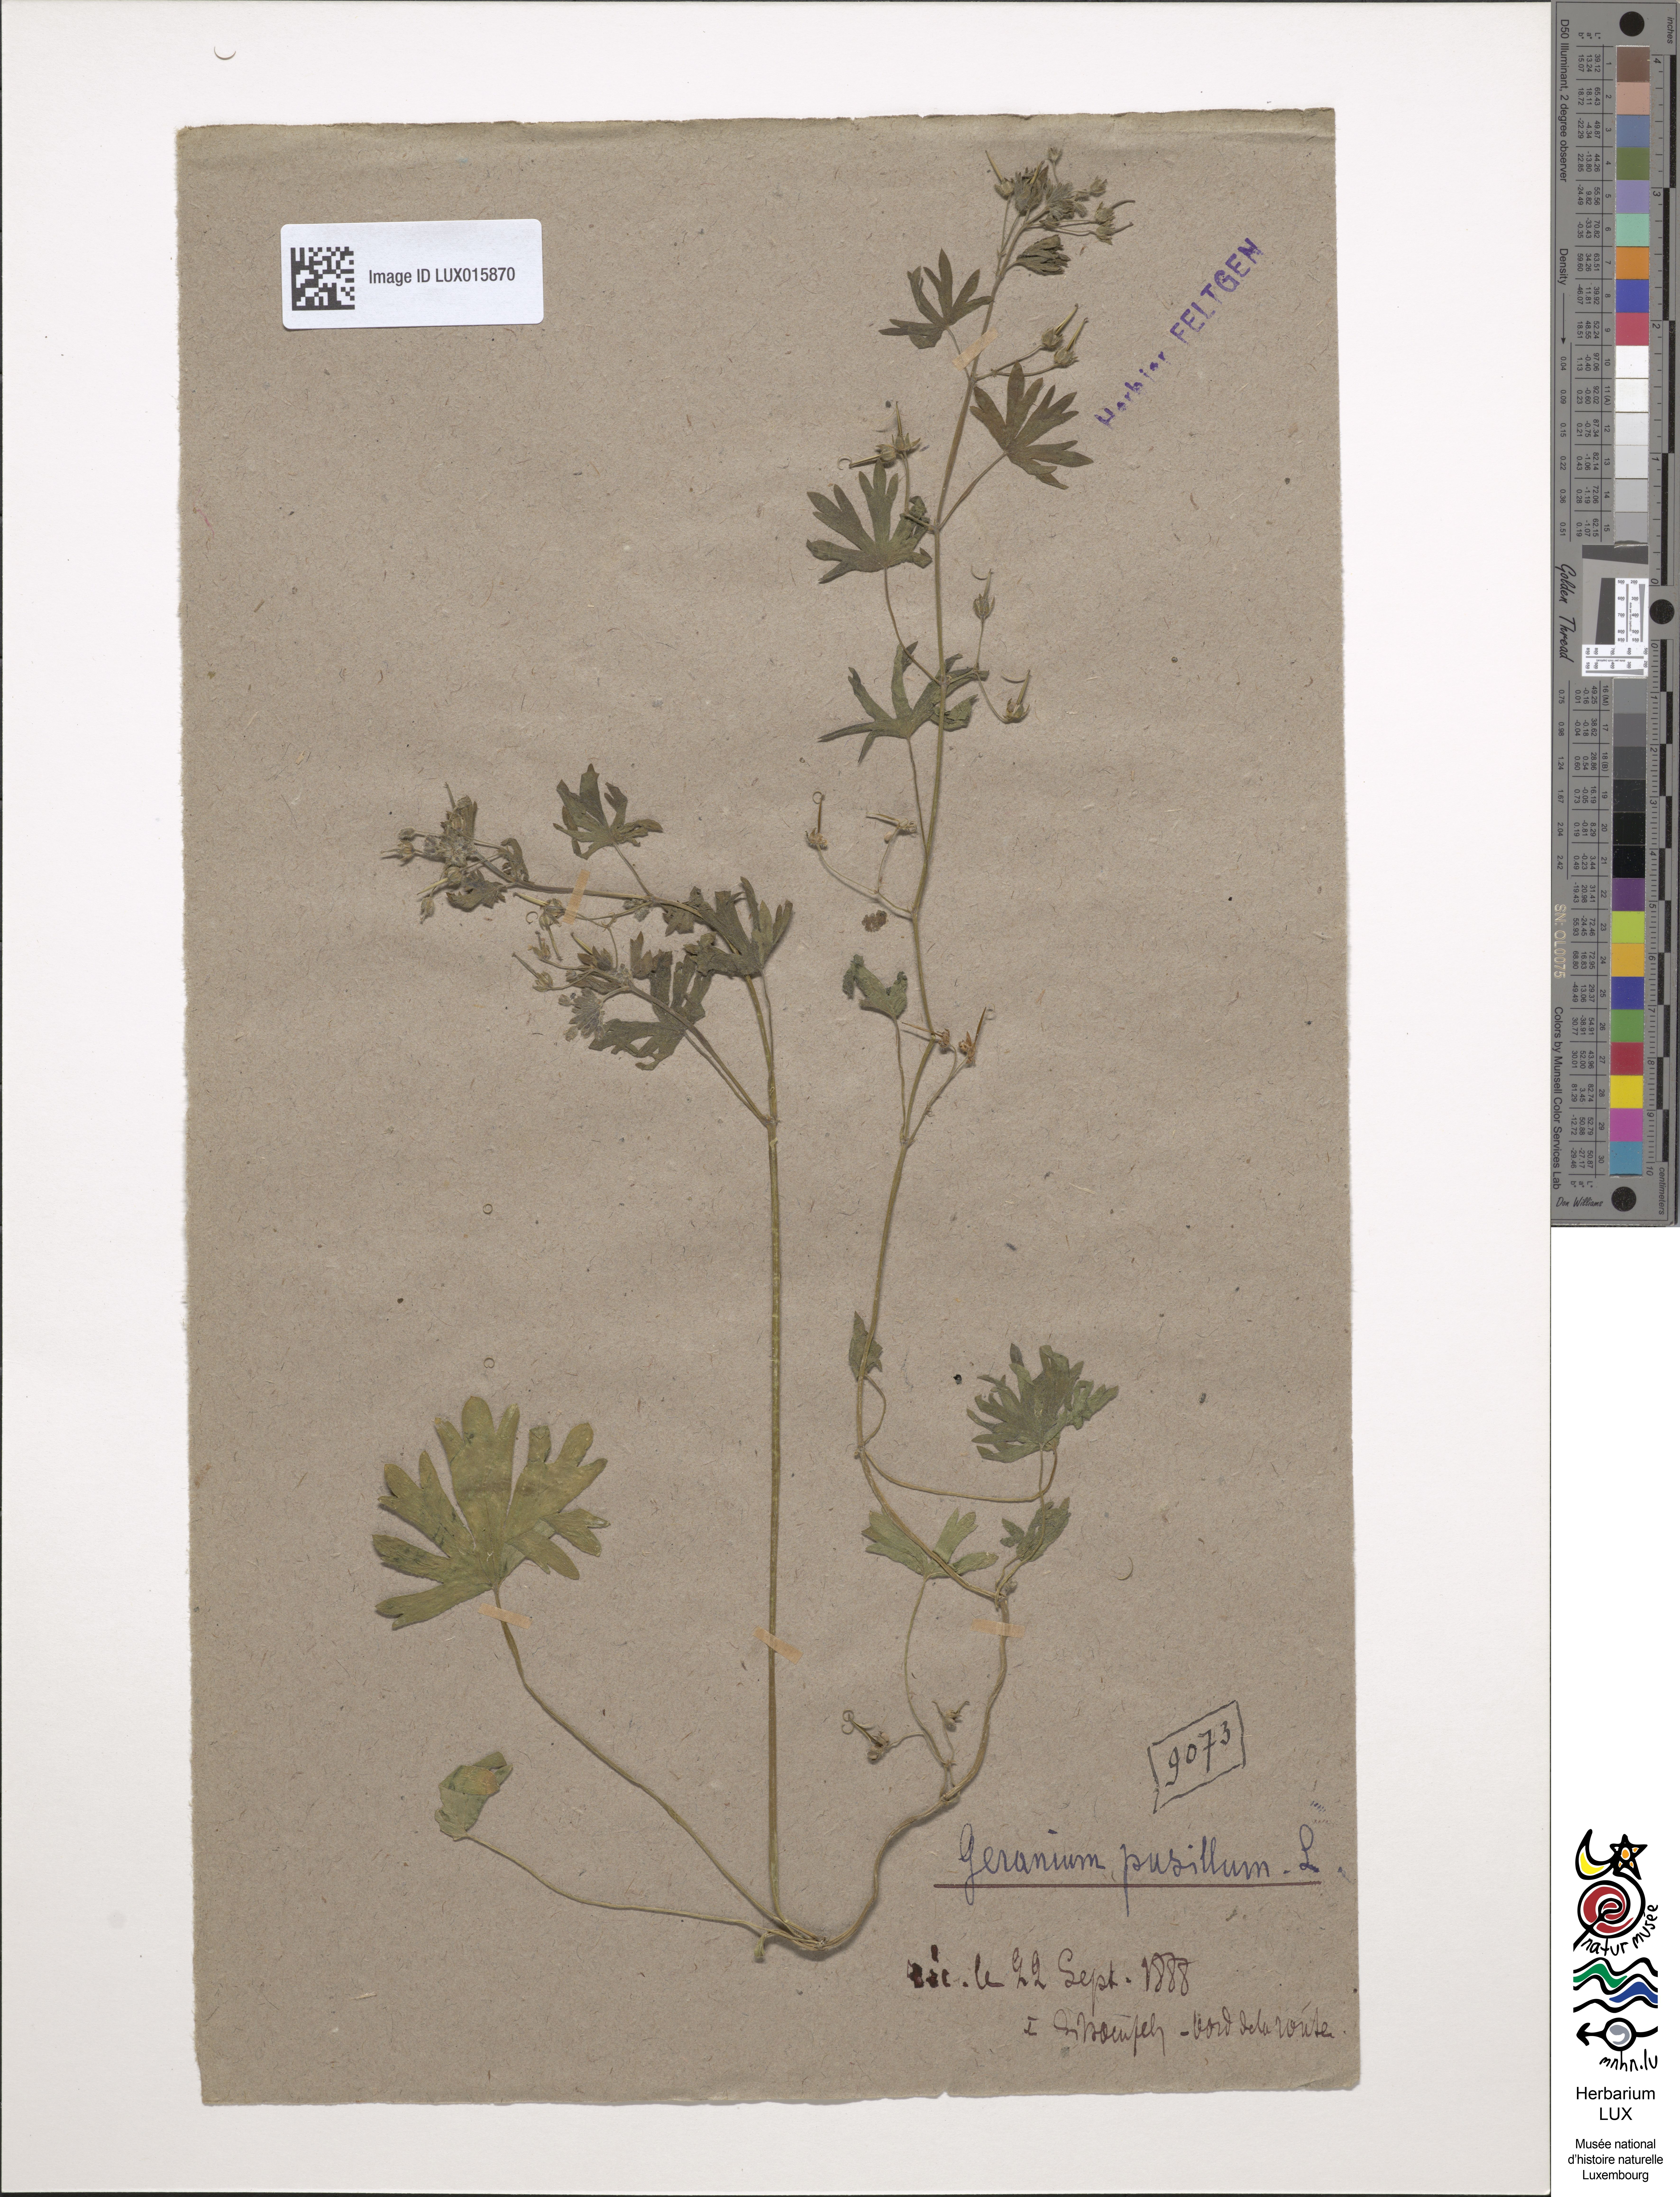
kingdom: Plantae
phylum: Tracheophyta
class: Magnoliopsida
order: Geraniales
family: Geraniaceae
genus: Geranium
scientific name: Geranium pusillum
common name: Small geranium
